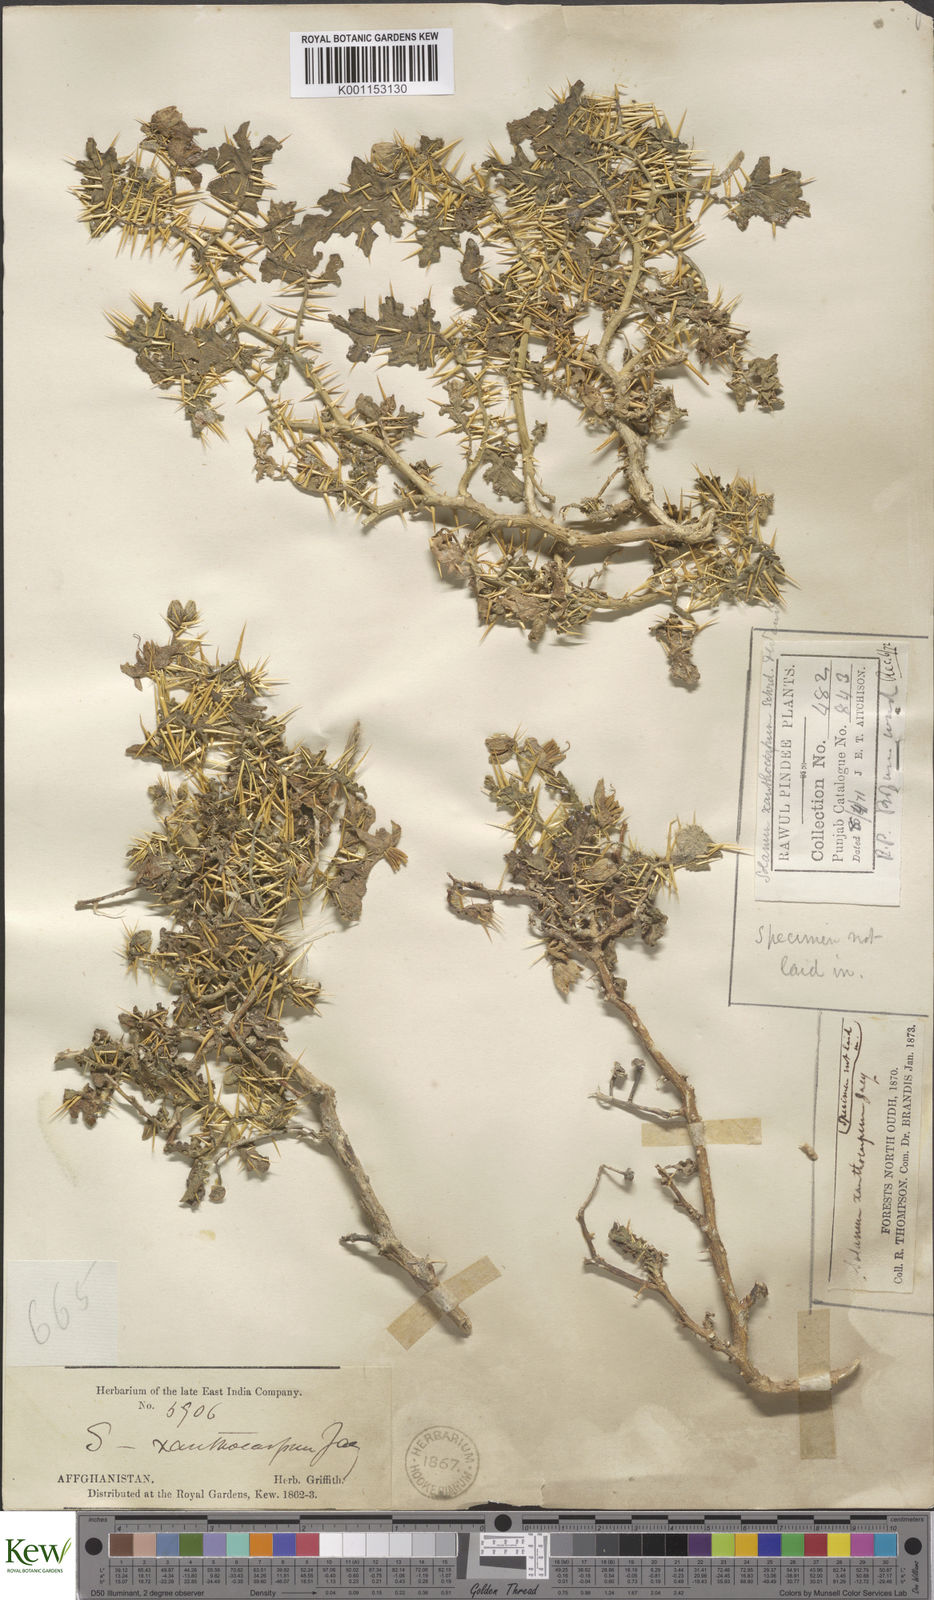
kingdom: Plantae
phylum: Tracheophyta
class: Magnoliopsida
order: Solanales
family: Solanaceae
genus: Solanum
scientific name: Solanum virginianum
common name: Surattense nightshade
